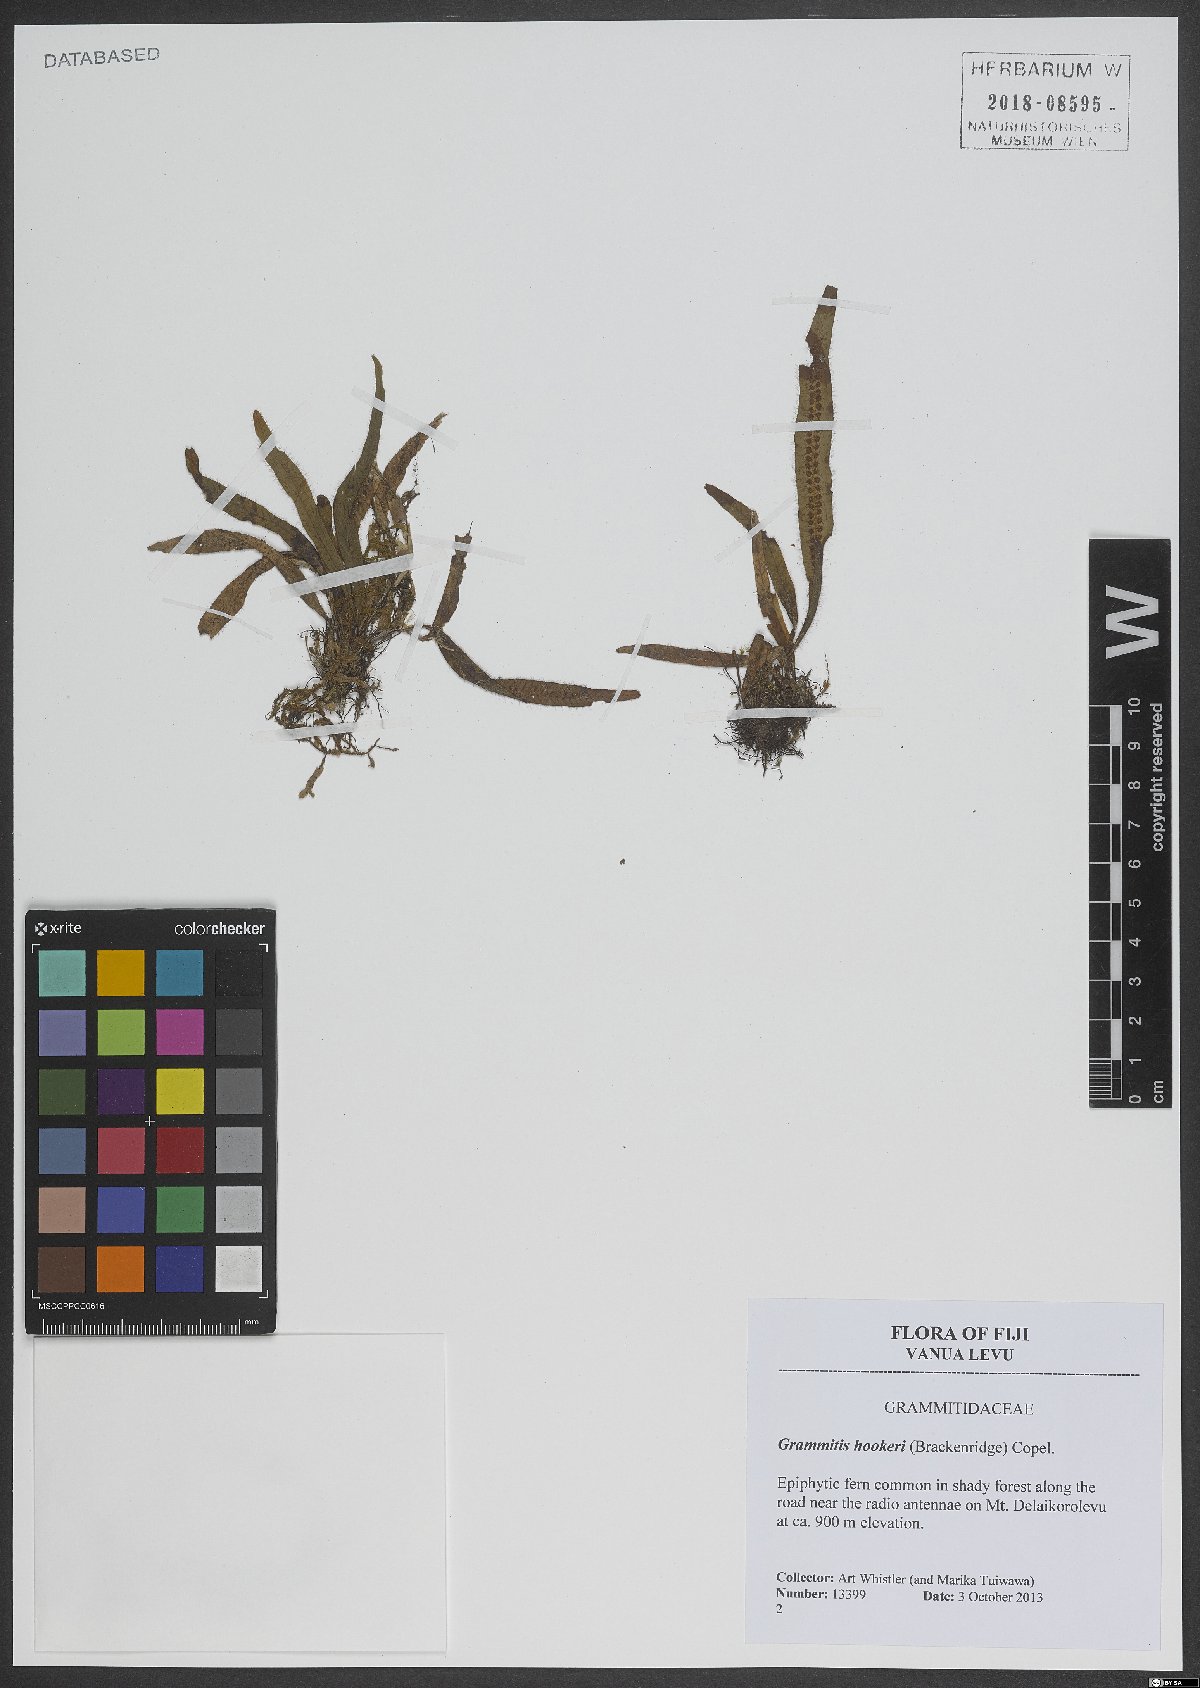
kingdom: Plantae
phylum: Tracheophyta
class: Polypodiopsida
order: Polypodiales
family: Polypodiaceae
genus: Oreogrammitis
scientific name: Oreogrammitis hookeri
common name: Hooker's dwarf polypody
